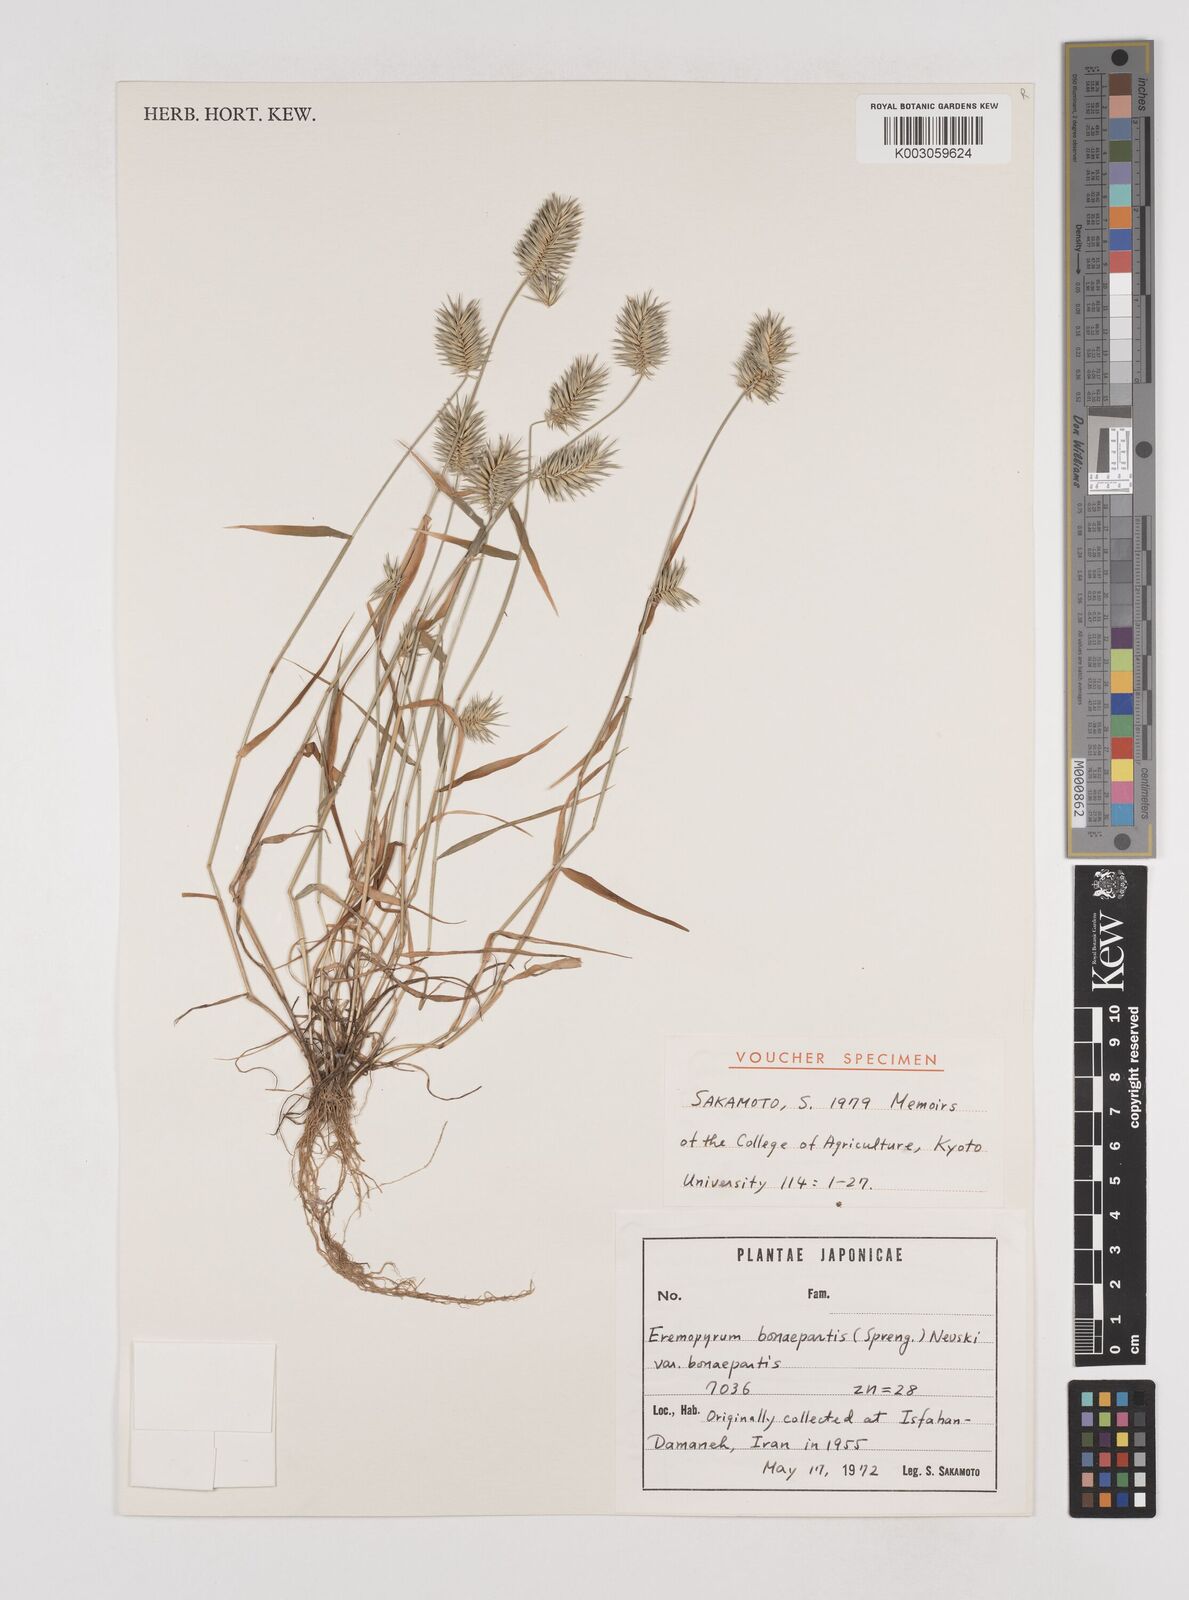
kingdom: Plantae
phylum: Tracheophyta
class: Liliopsida
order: Poales
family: Poaceae
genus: Eremopyrum
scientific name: Eremopyrum bonaepartis
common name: Tapertip false wheatgrass
